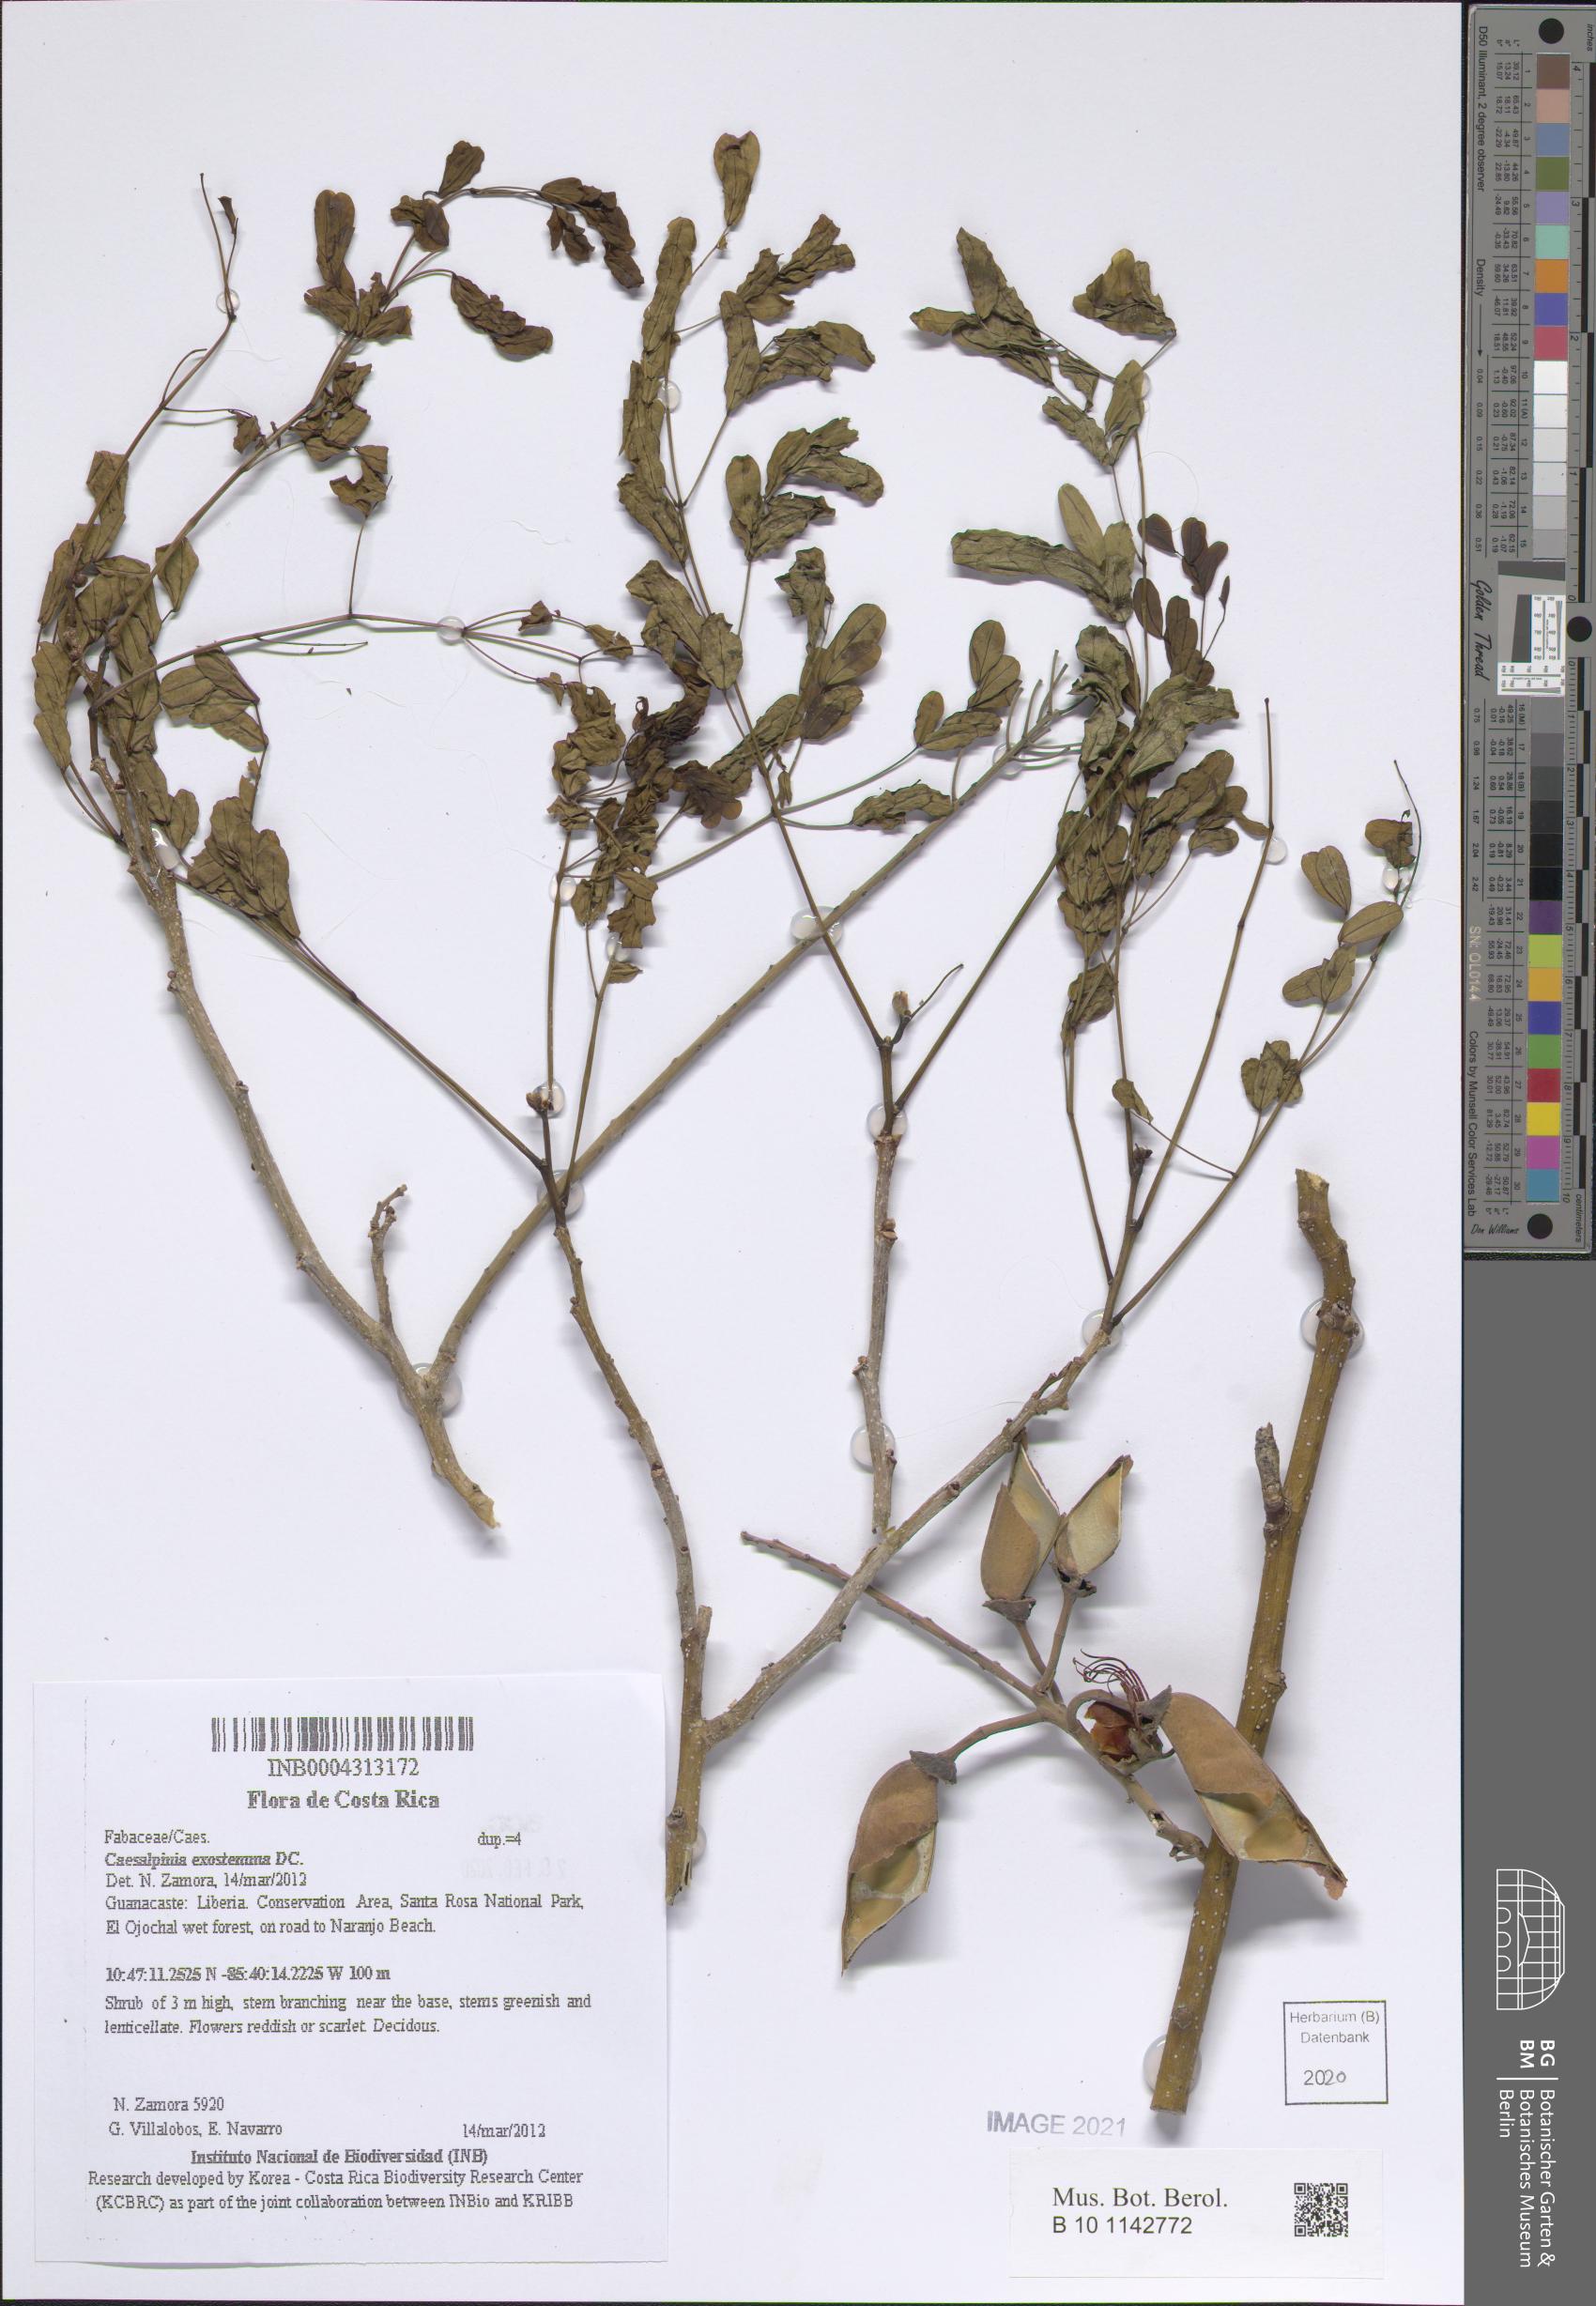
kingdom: Plantae
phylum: Tracheophyta
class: Magnoliopsida
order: Fabales
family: Fabaceae
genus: Erythrostemon
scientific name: Erythrostemon exostemma
